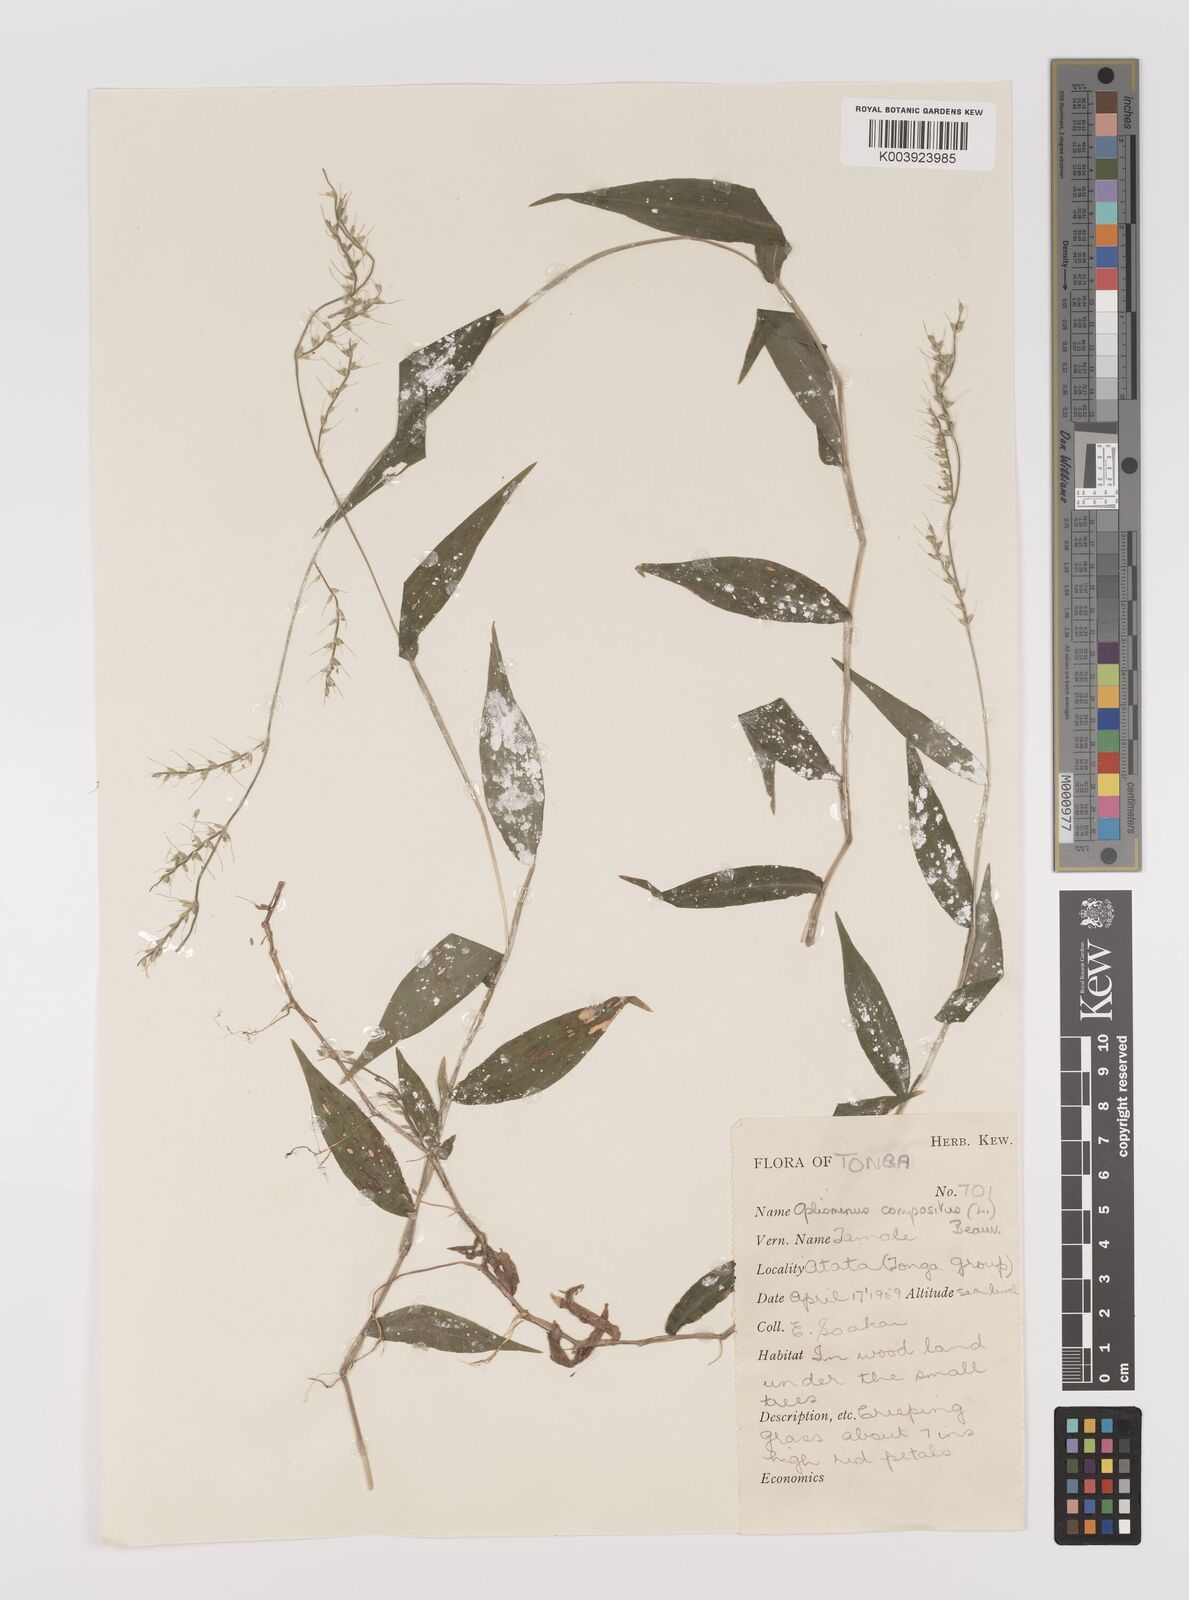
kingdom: Plantae
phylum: Tracheophyta
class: Liliopsida
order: Poales
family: Poaceae
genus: Oplismenus
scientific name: Oplismenus compositus
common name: Running mountain grass
